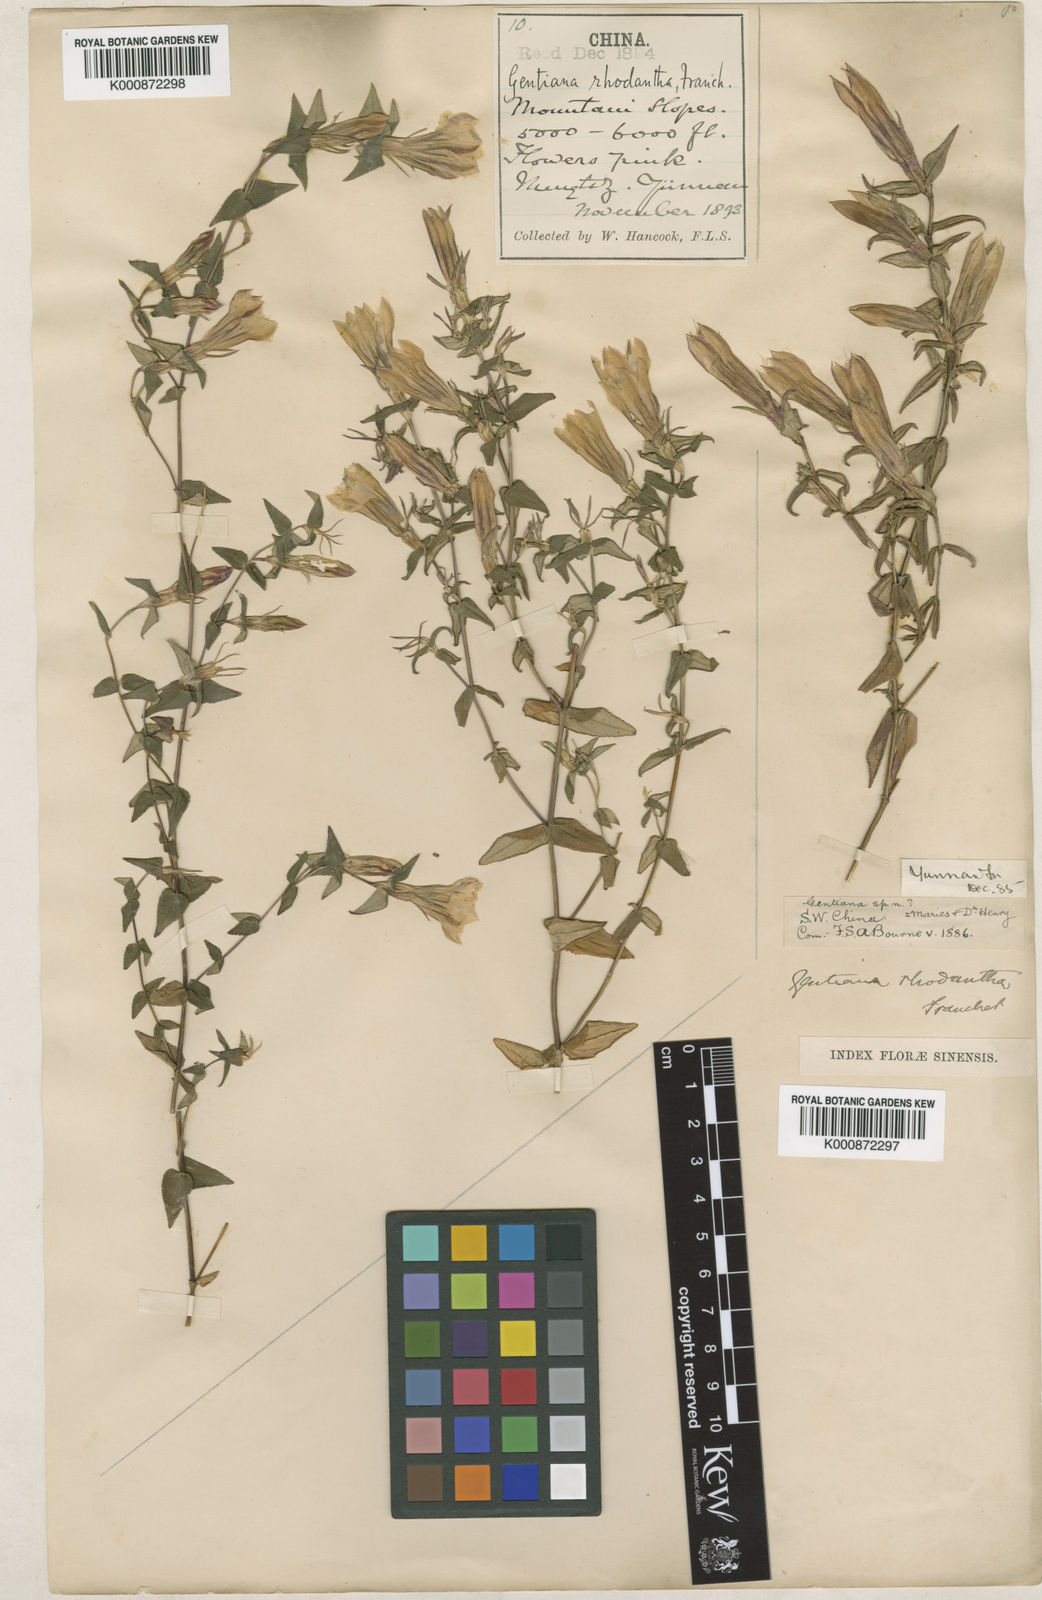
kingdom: Plantae
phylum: Tracheophyta
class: Magnoliopsida
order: Gentianales
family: Gentianaceae
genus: Metagentiana
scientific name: Metagentiana rhodantha
